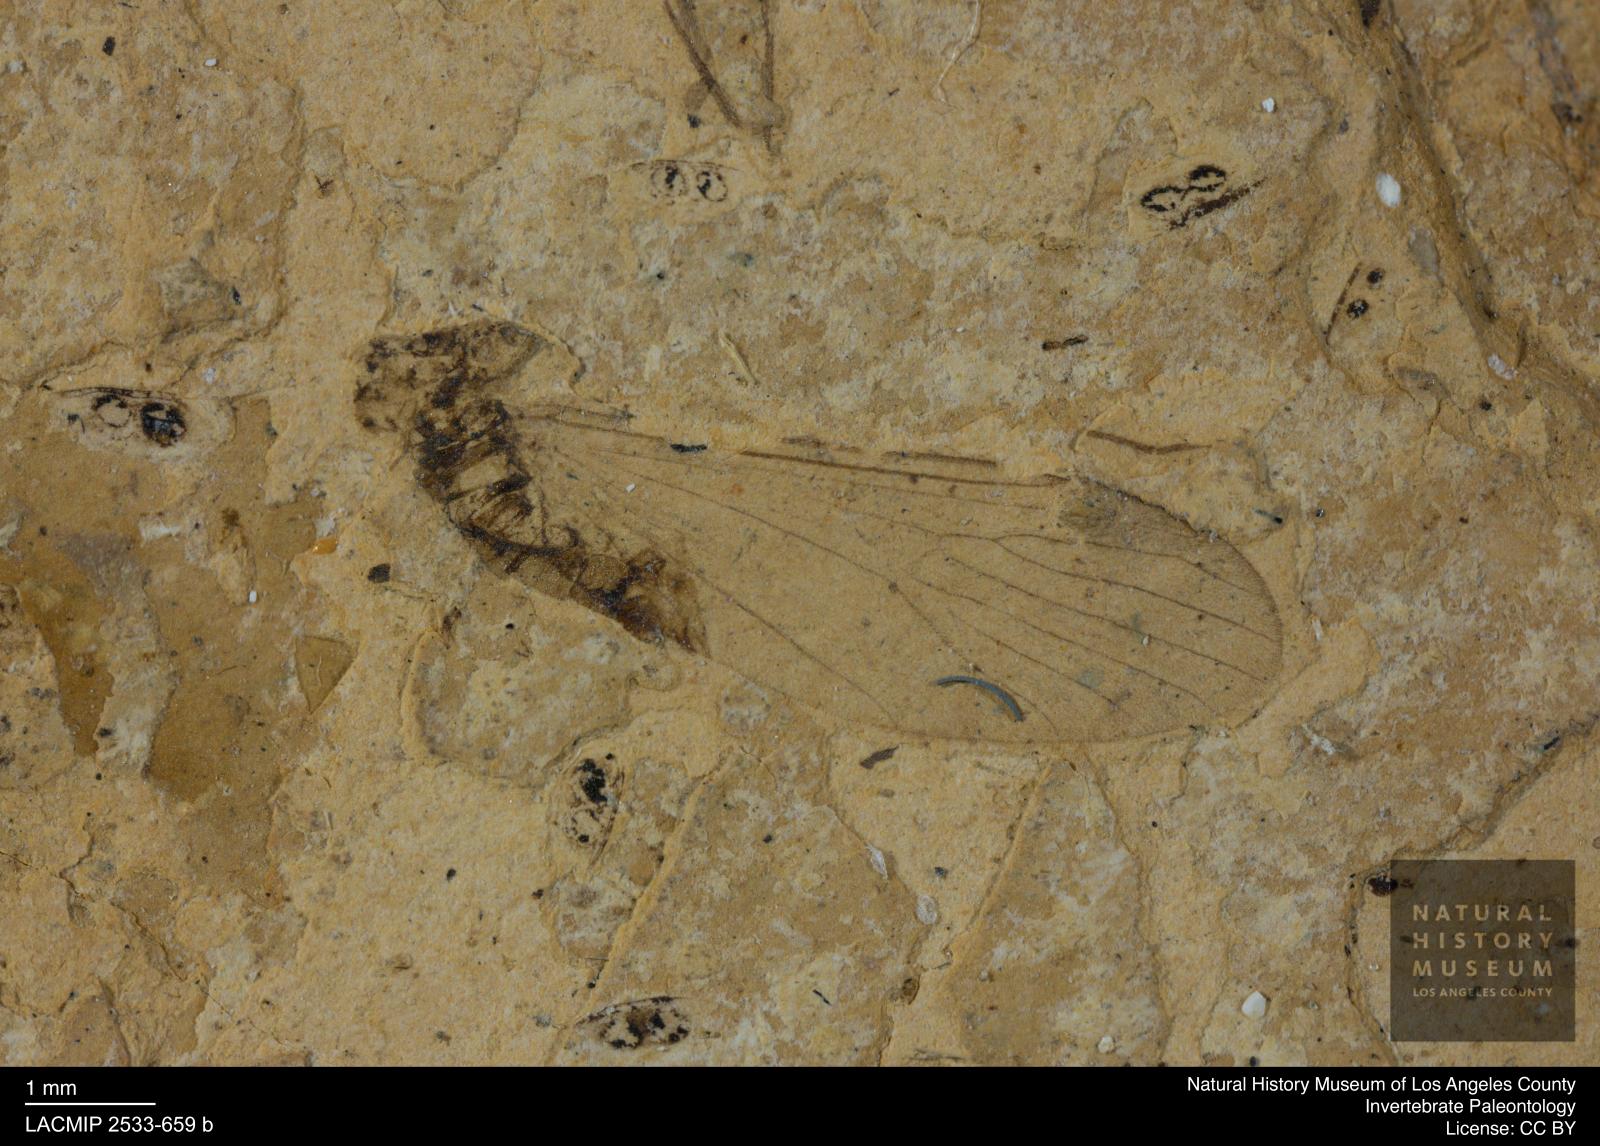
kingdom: Animalia
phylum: Arthropoda
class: Insecta
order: Diptera
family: Pediciidae
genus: Ula
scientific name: Ula rottensis
